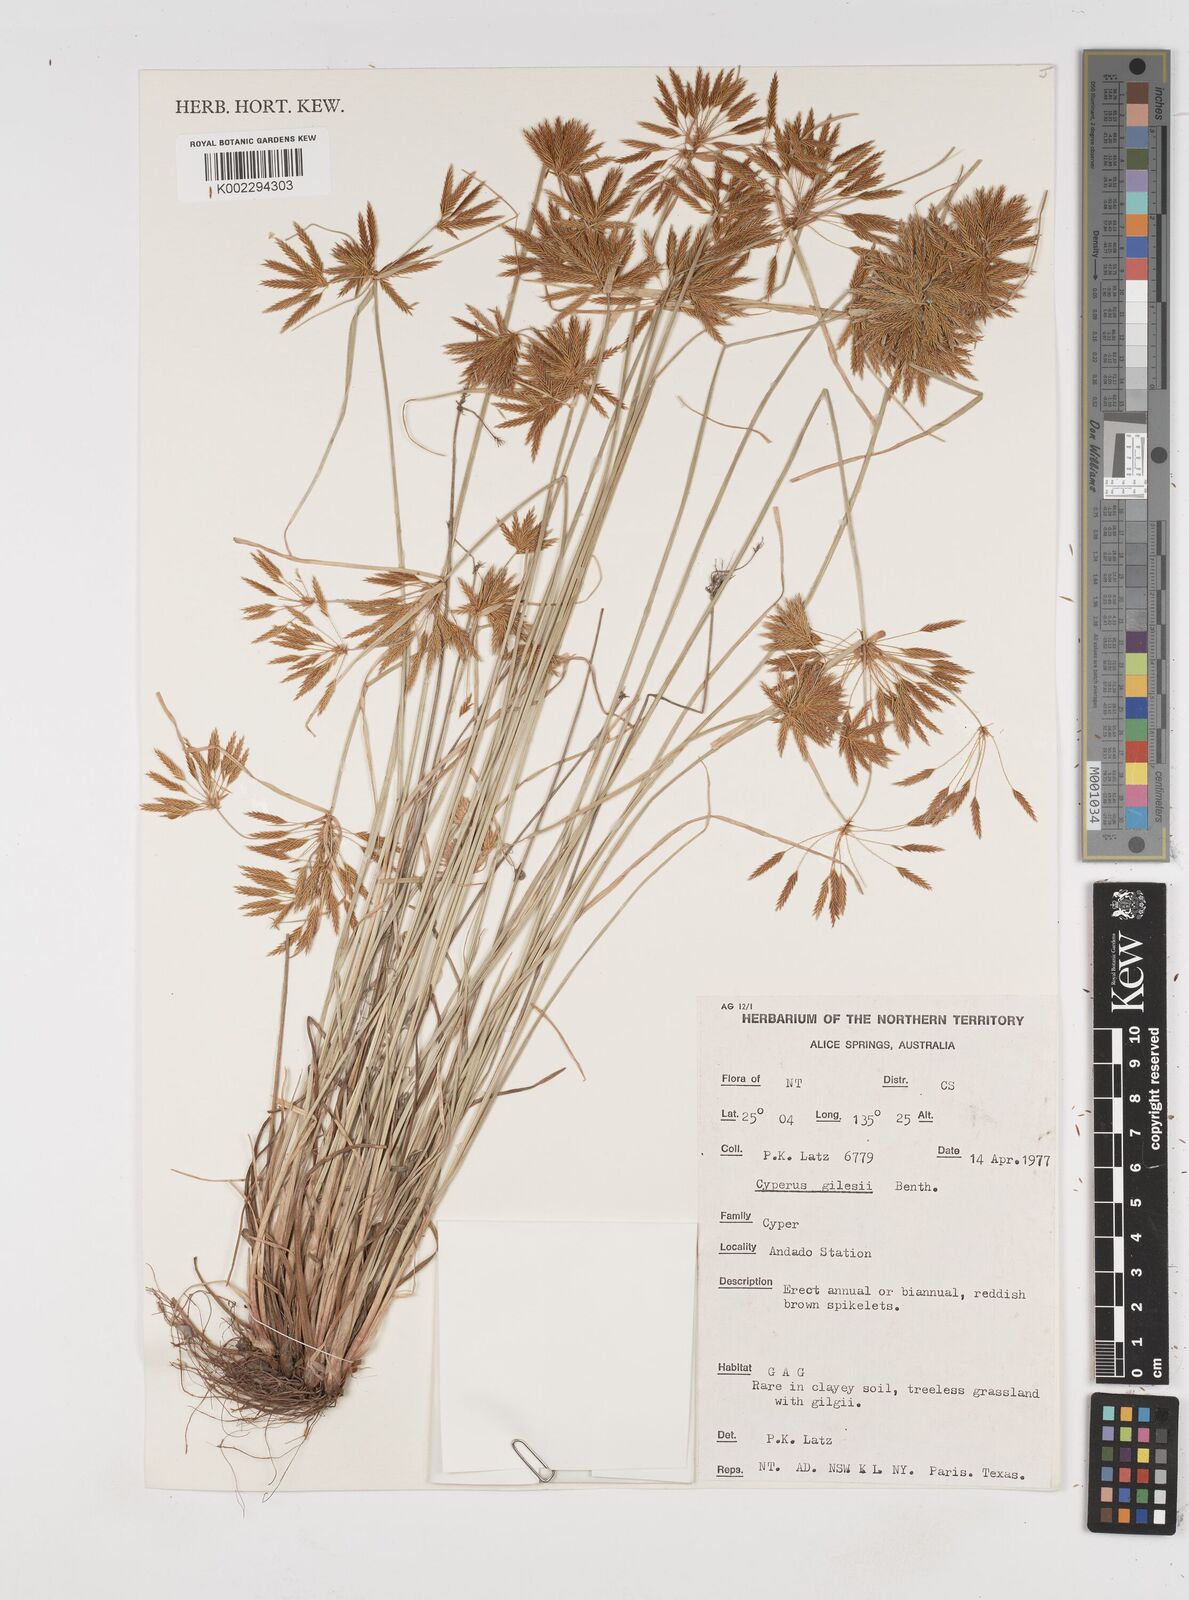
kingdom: Plantae
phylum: Tracheophyta
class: Liliopsida
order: Poales
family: Cyperaceae
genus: Cyperus
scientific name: Cyperus gilesii
